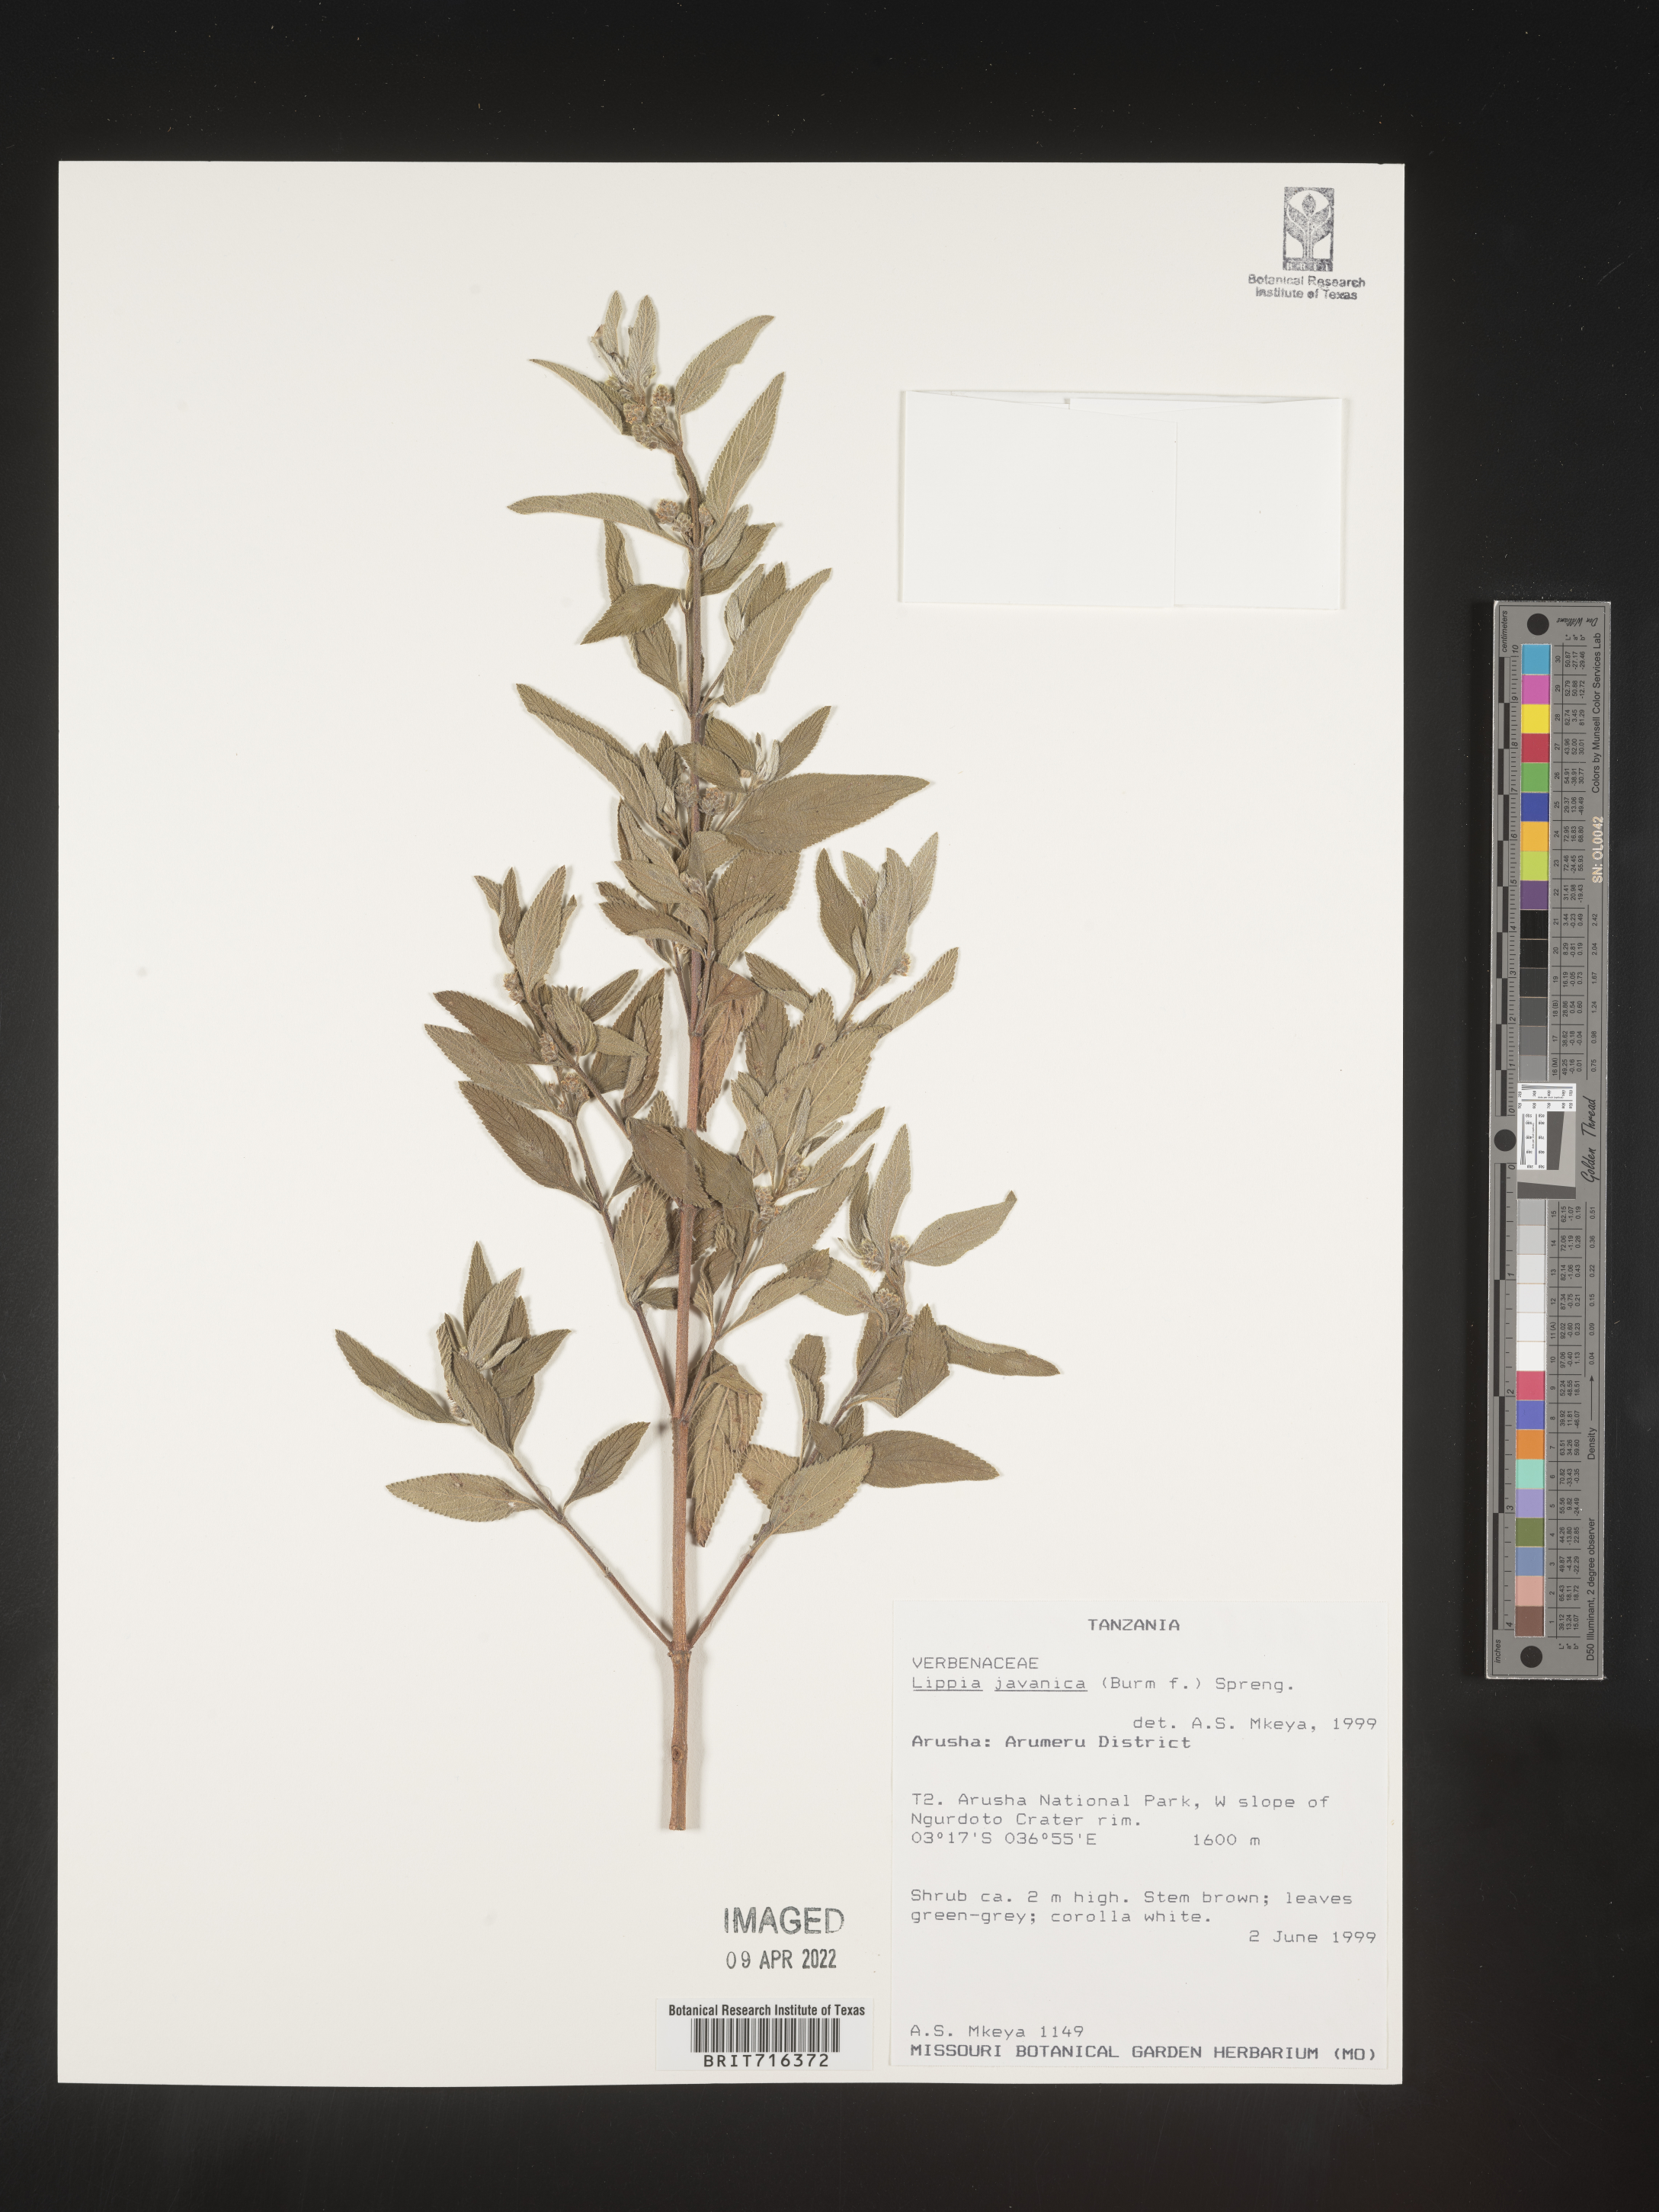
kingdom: Plantae
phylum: Tracheophyta
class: Magnoliopsida
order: Lamiales
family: Verbenaceae
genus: Lippia
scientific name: Lippia
